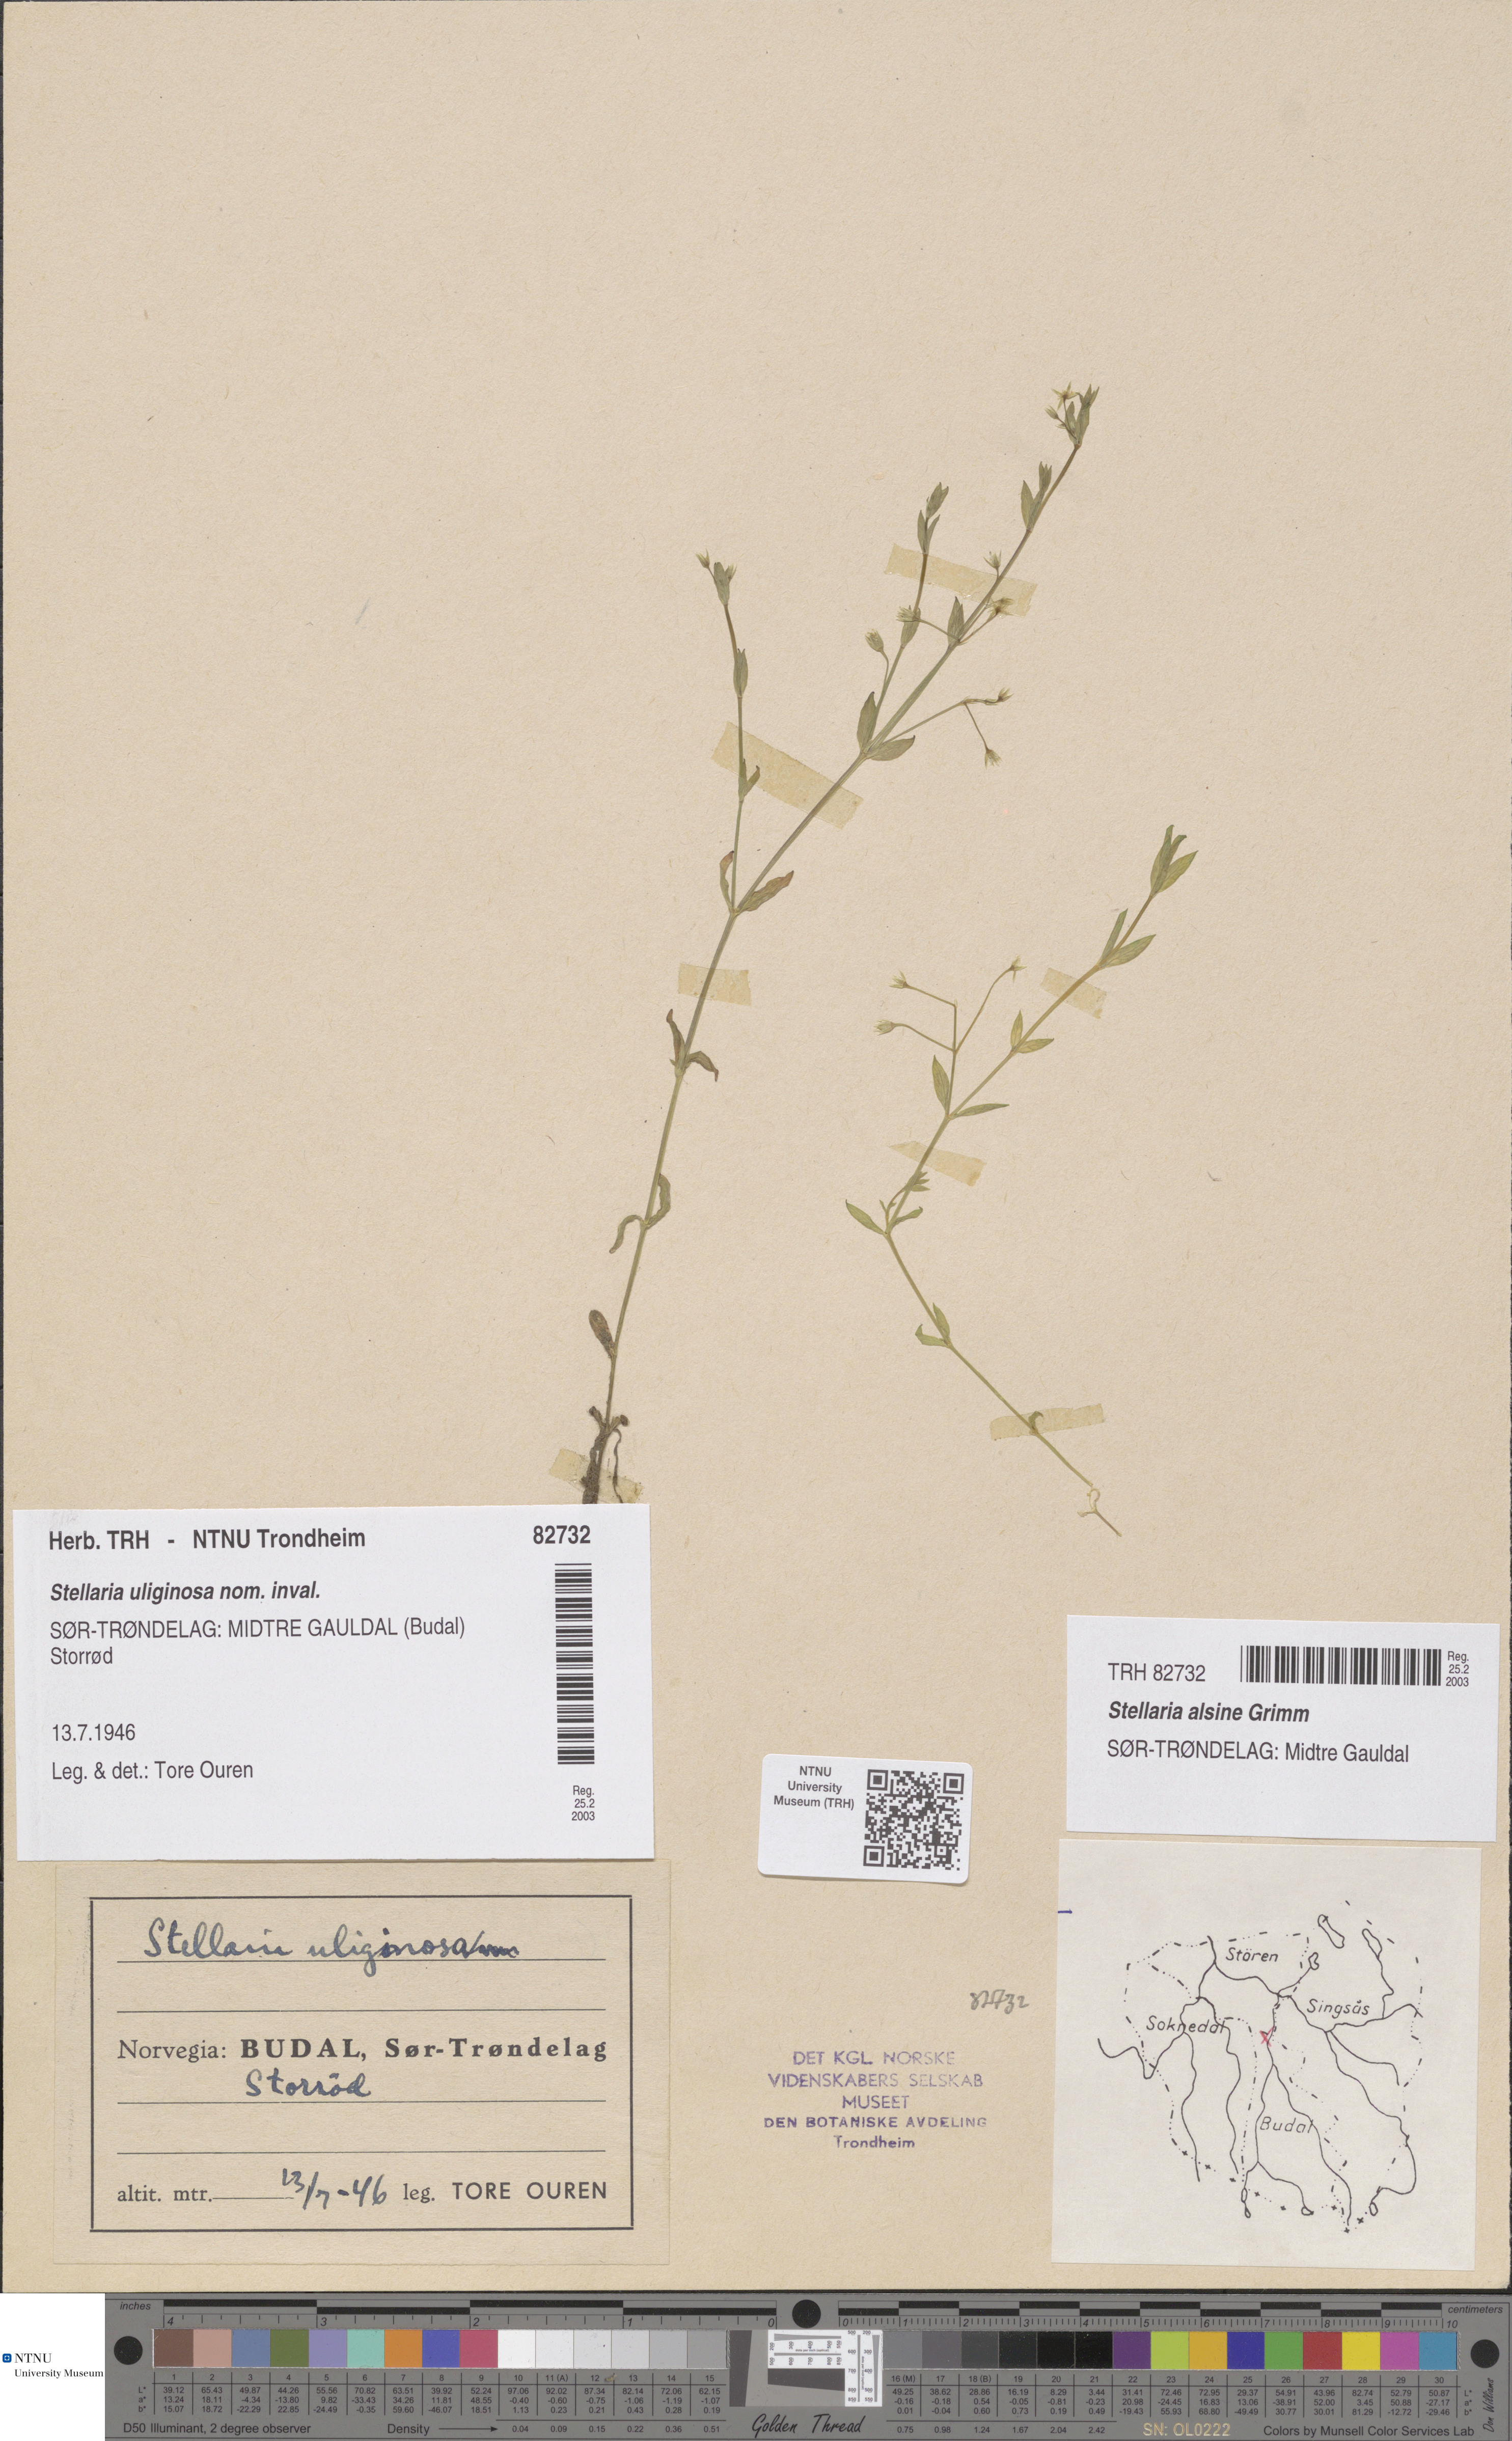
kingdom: Plantae
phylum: Tracheophyta
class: Magnoliopsida
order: Caryophyllales
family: Caryophyllaceae
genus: Stellaria
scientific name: Stellaria alsine
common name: Bog stitchwort
